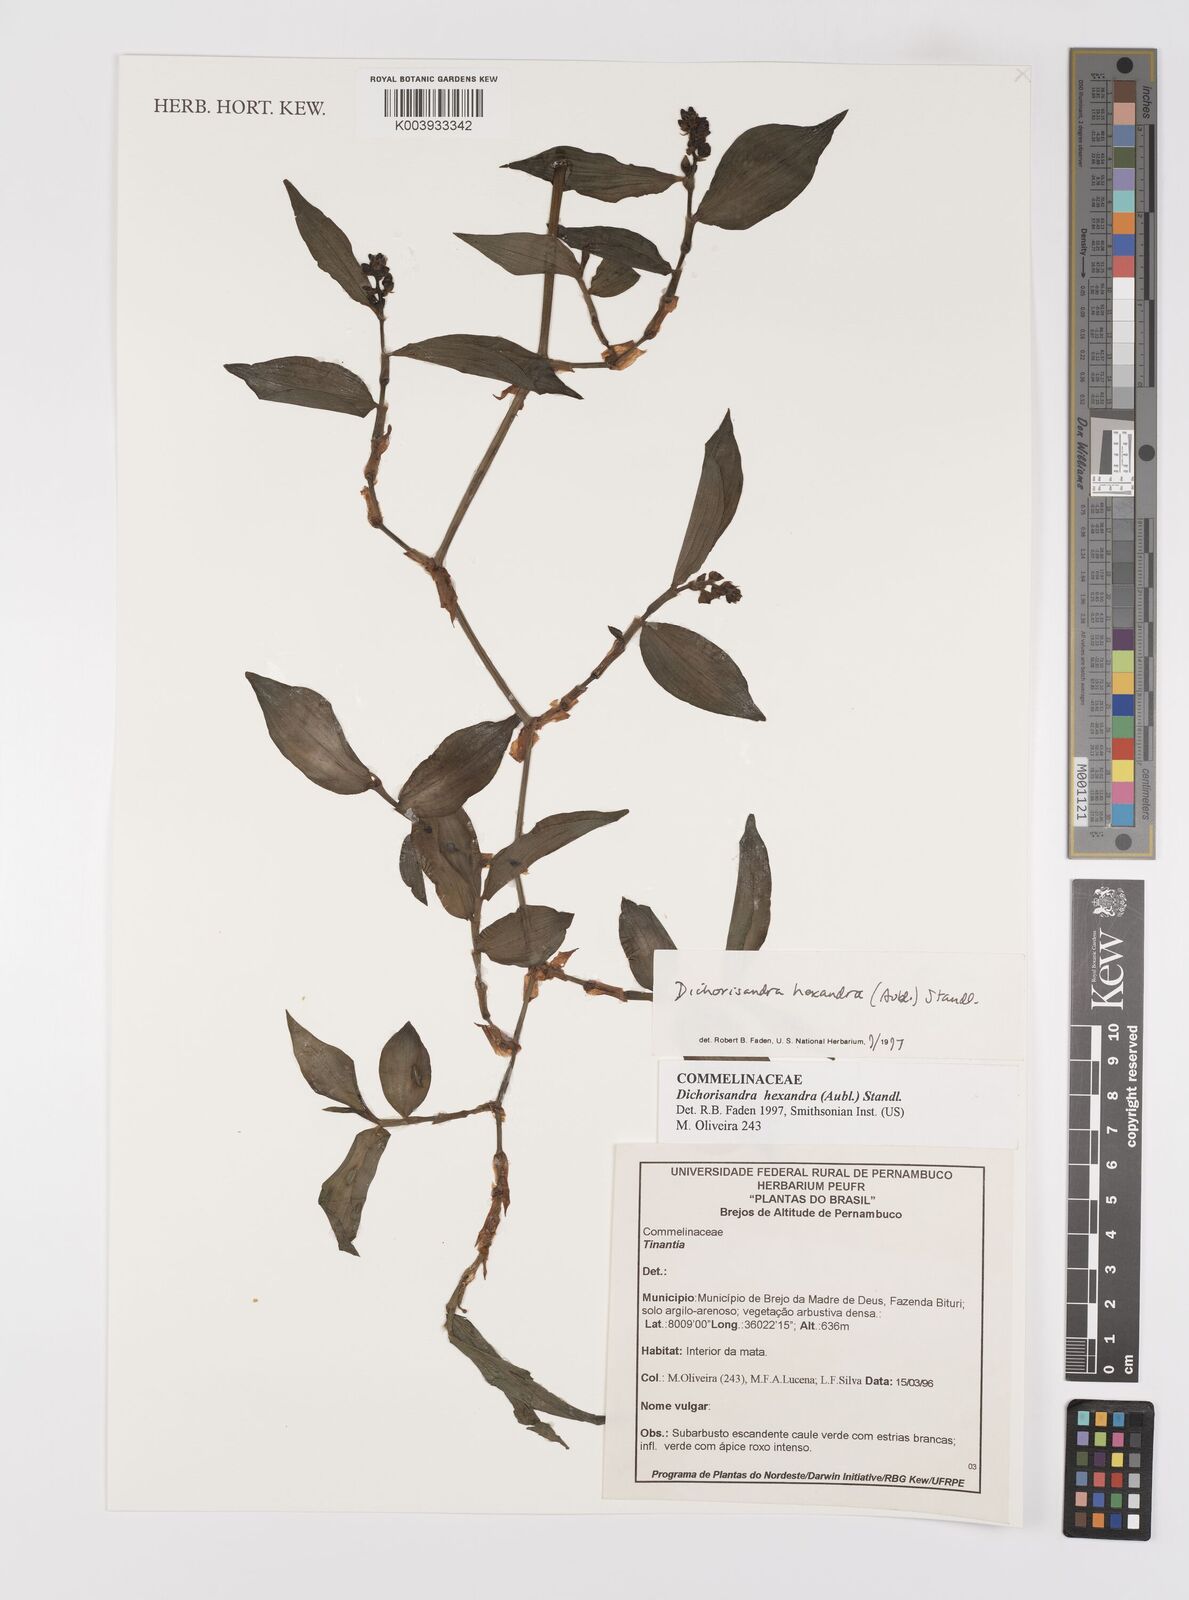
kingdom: Plantae
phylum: Tracheophyta
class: Liliopsida
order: Commelinales
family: Commelinaceae
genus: Dichorisandra
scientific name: Dichorisandra
